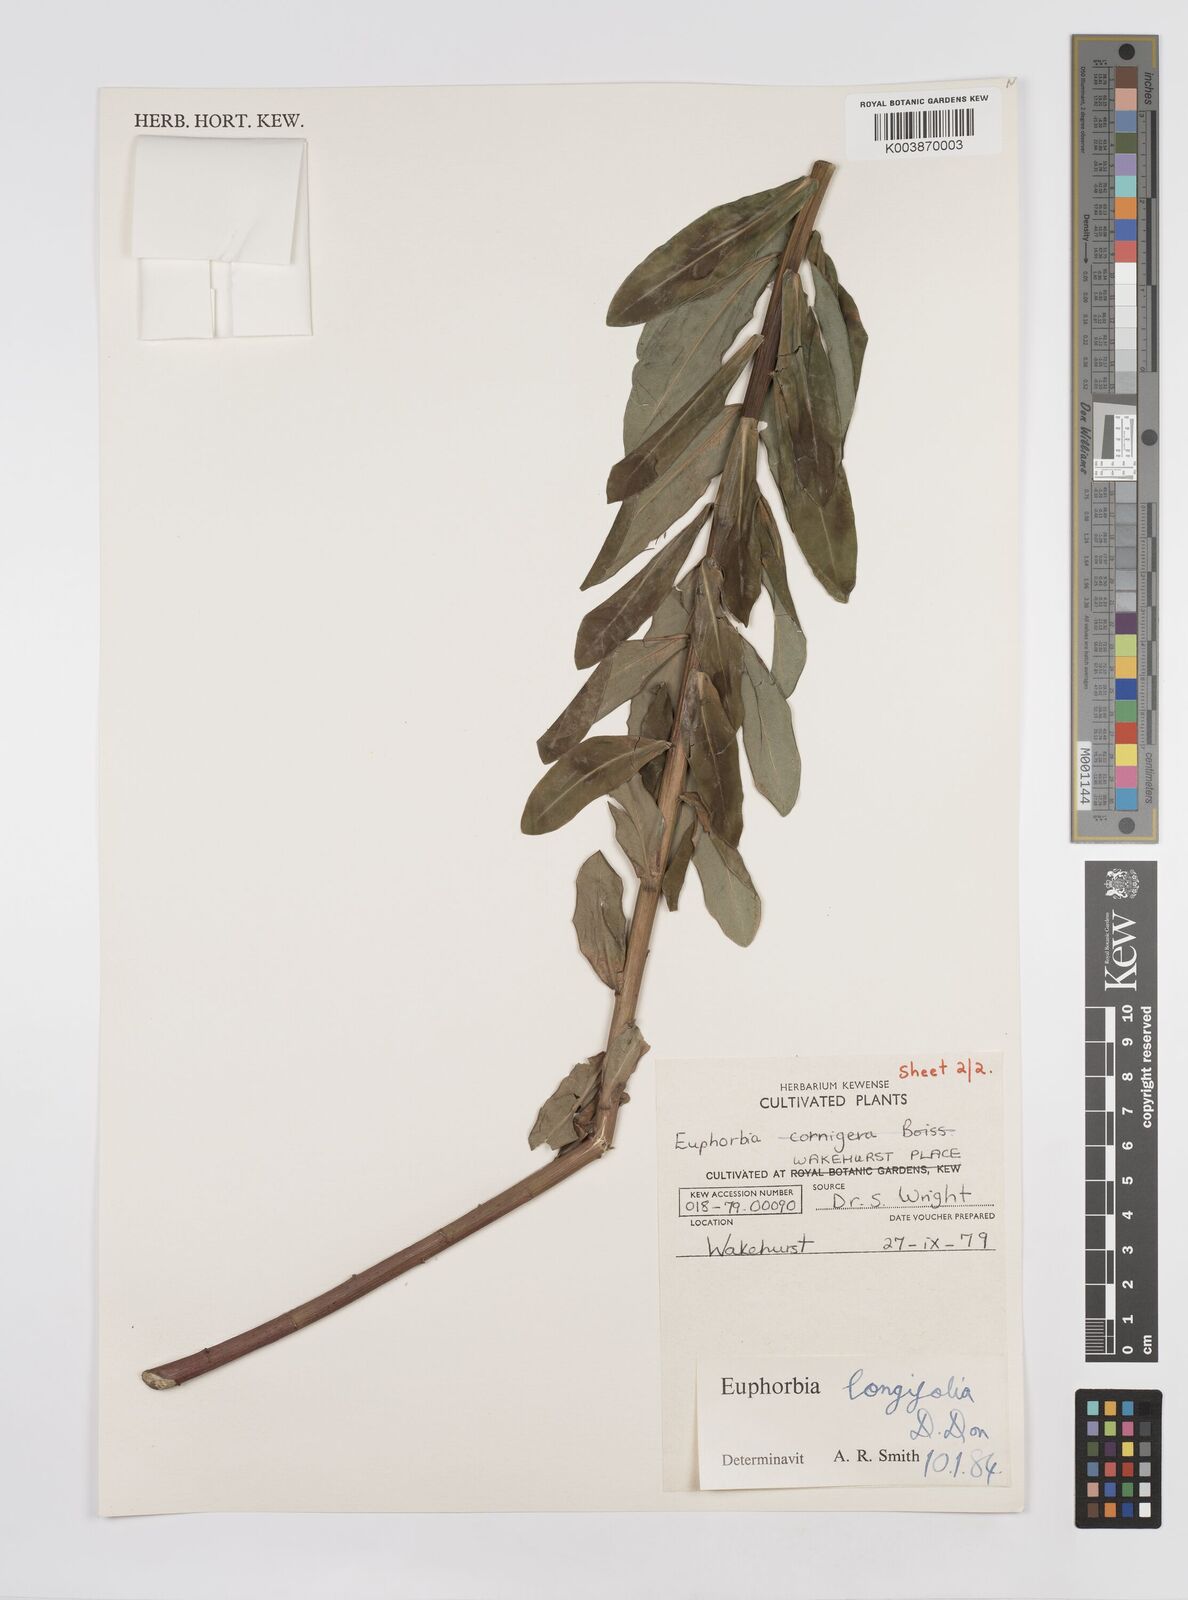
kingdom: Plantae
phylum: Tracheophyta
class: Magnoliopsida
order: Malpighiales
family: Euphorbiaceae
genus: Euphorbia
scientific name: Euphorbia
